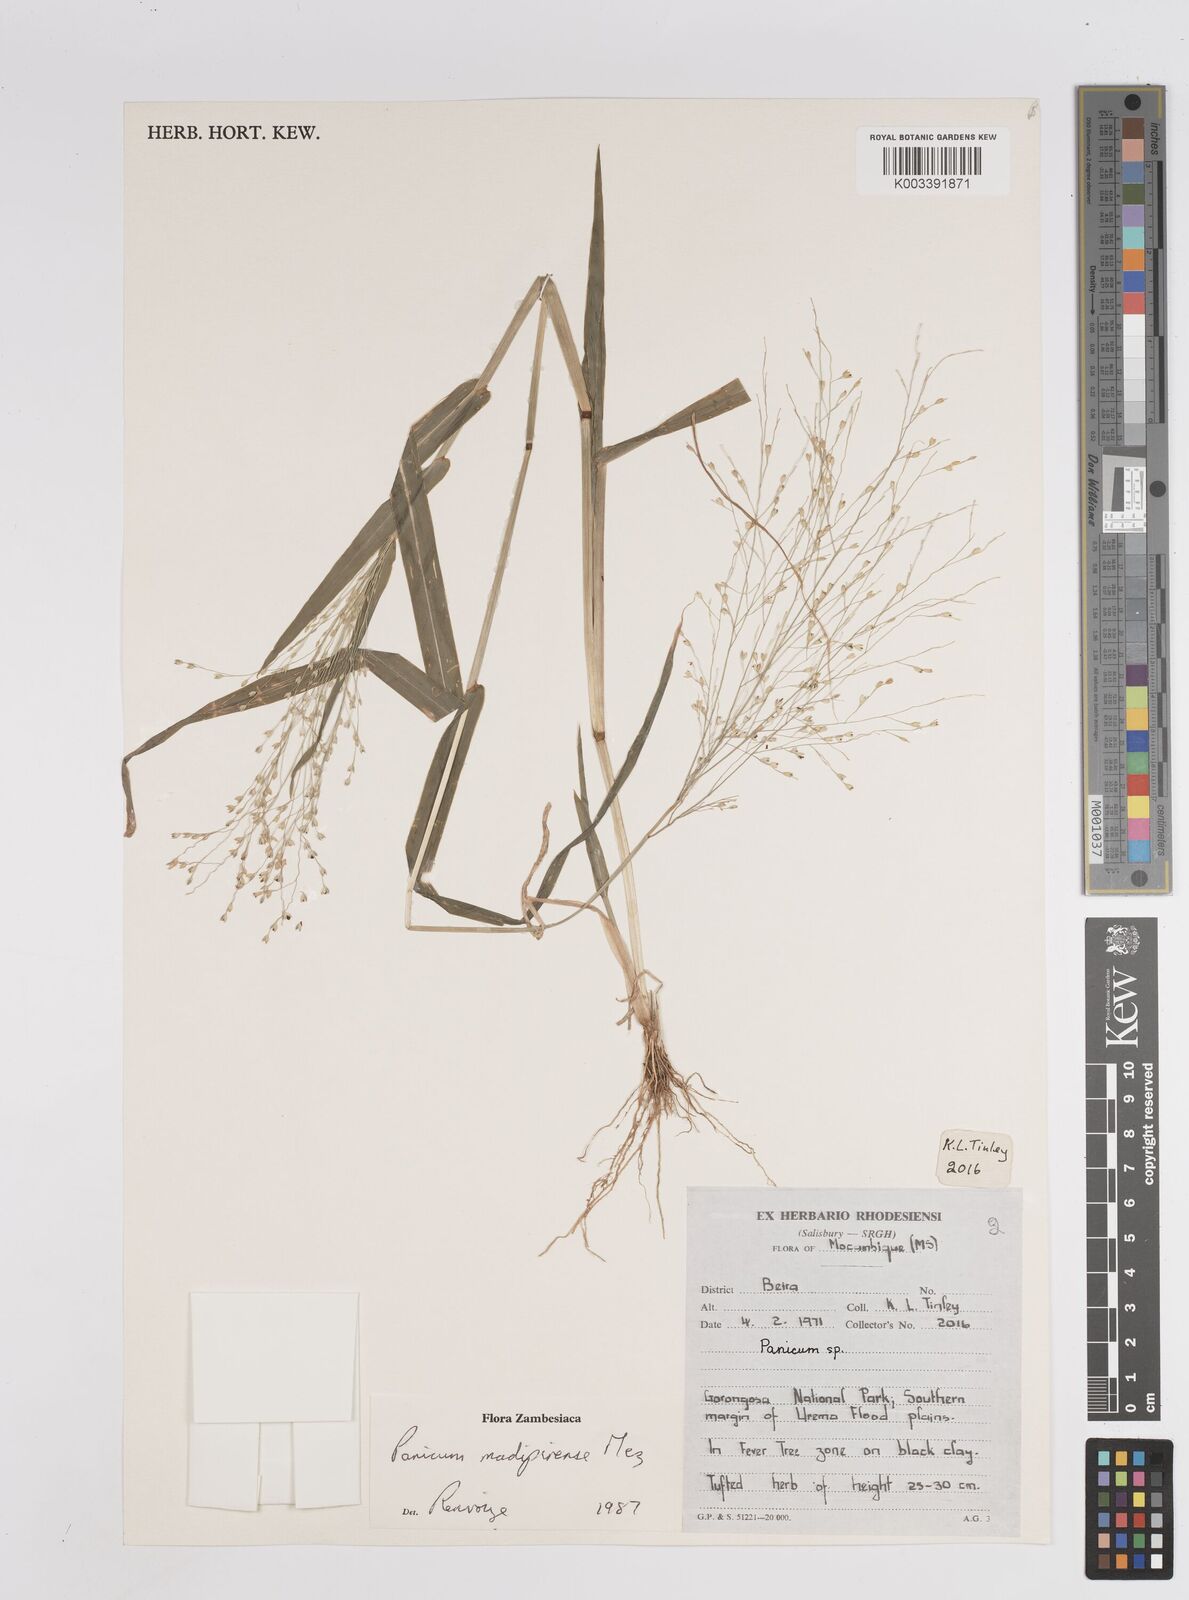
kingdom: Plantae
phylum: Tracheophyta
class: Liliopsida
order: Poales
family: Poaceae
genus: Panicum
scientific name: Panicum madipirense
